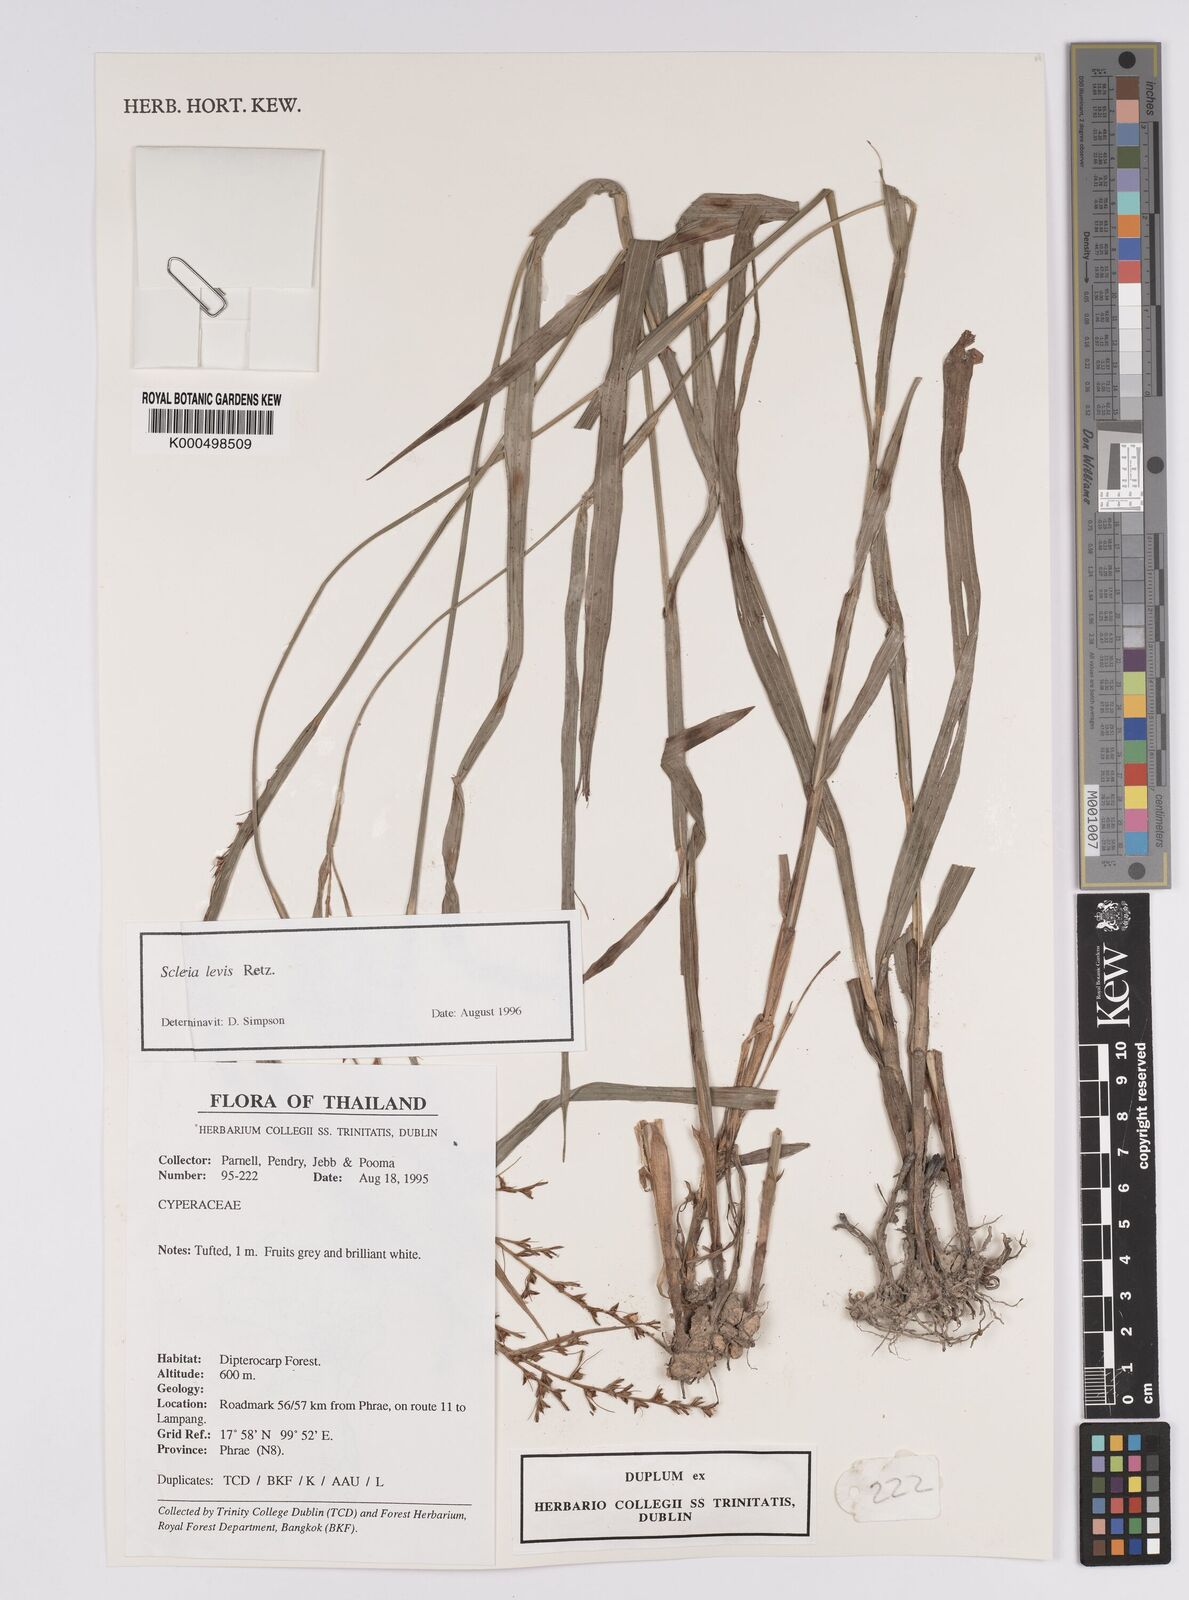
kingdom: Plantae
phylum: Tracheophyta
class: Liliopsida
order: Poales
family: Cyperaceae
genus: Scleria
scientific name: Scleria levis
